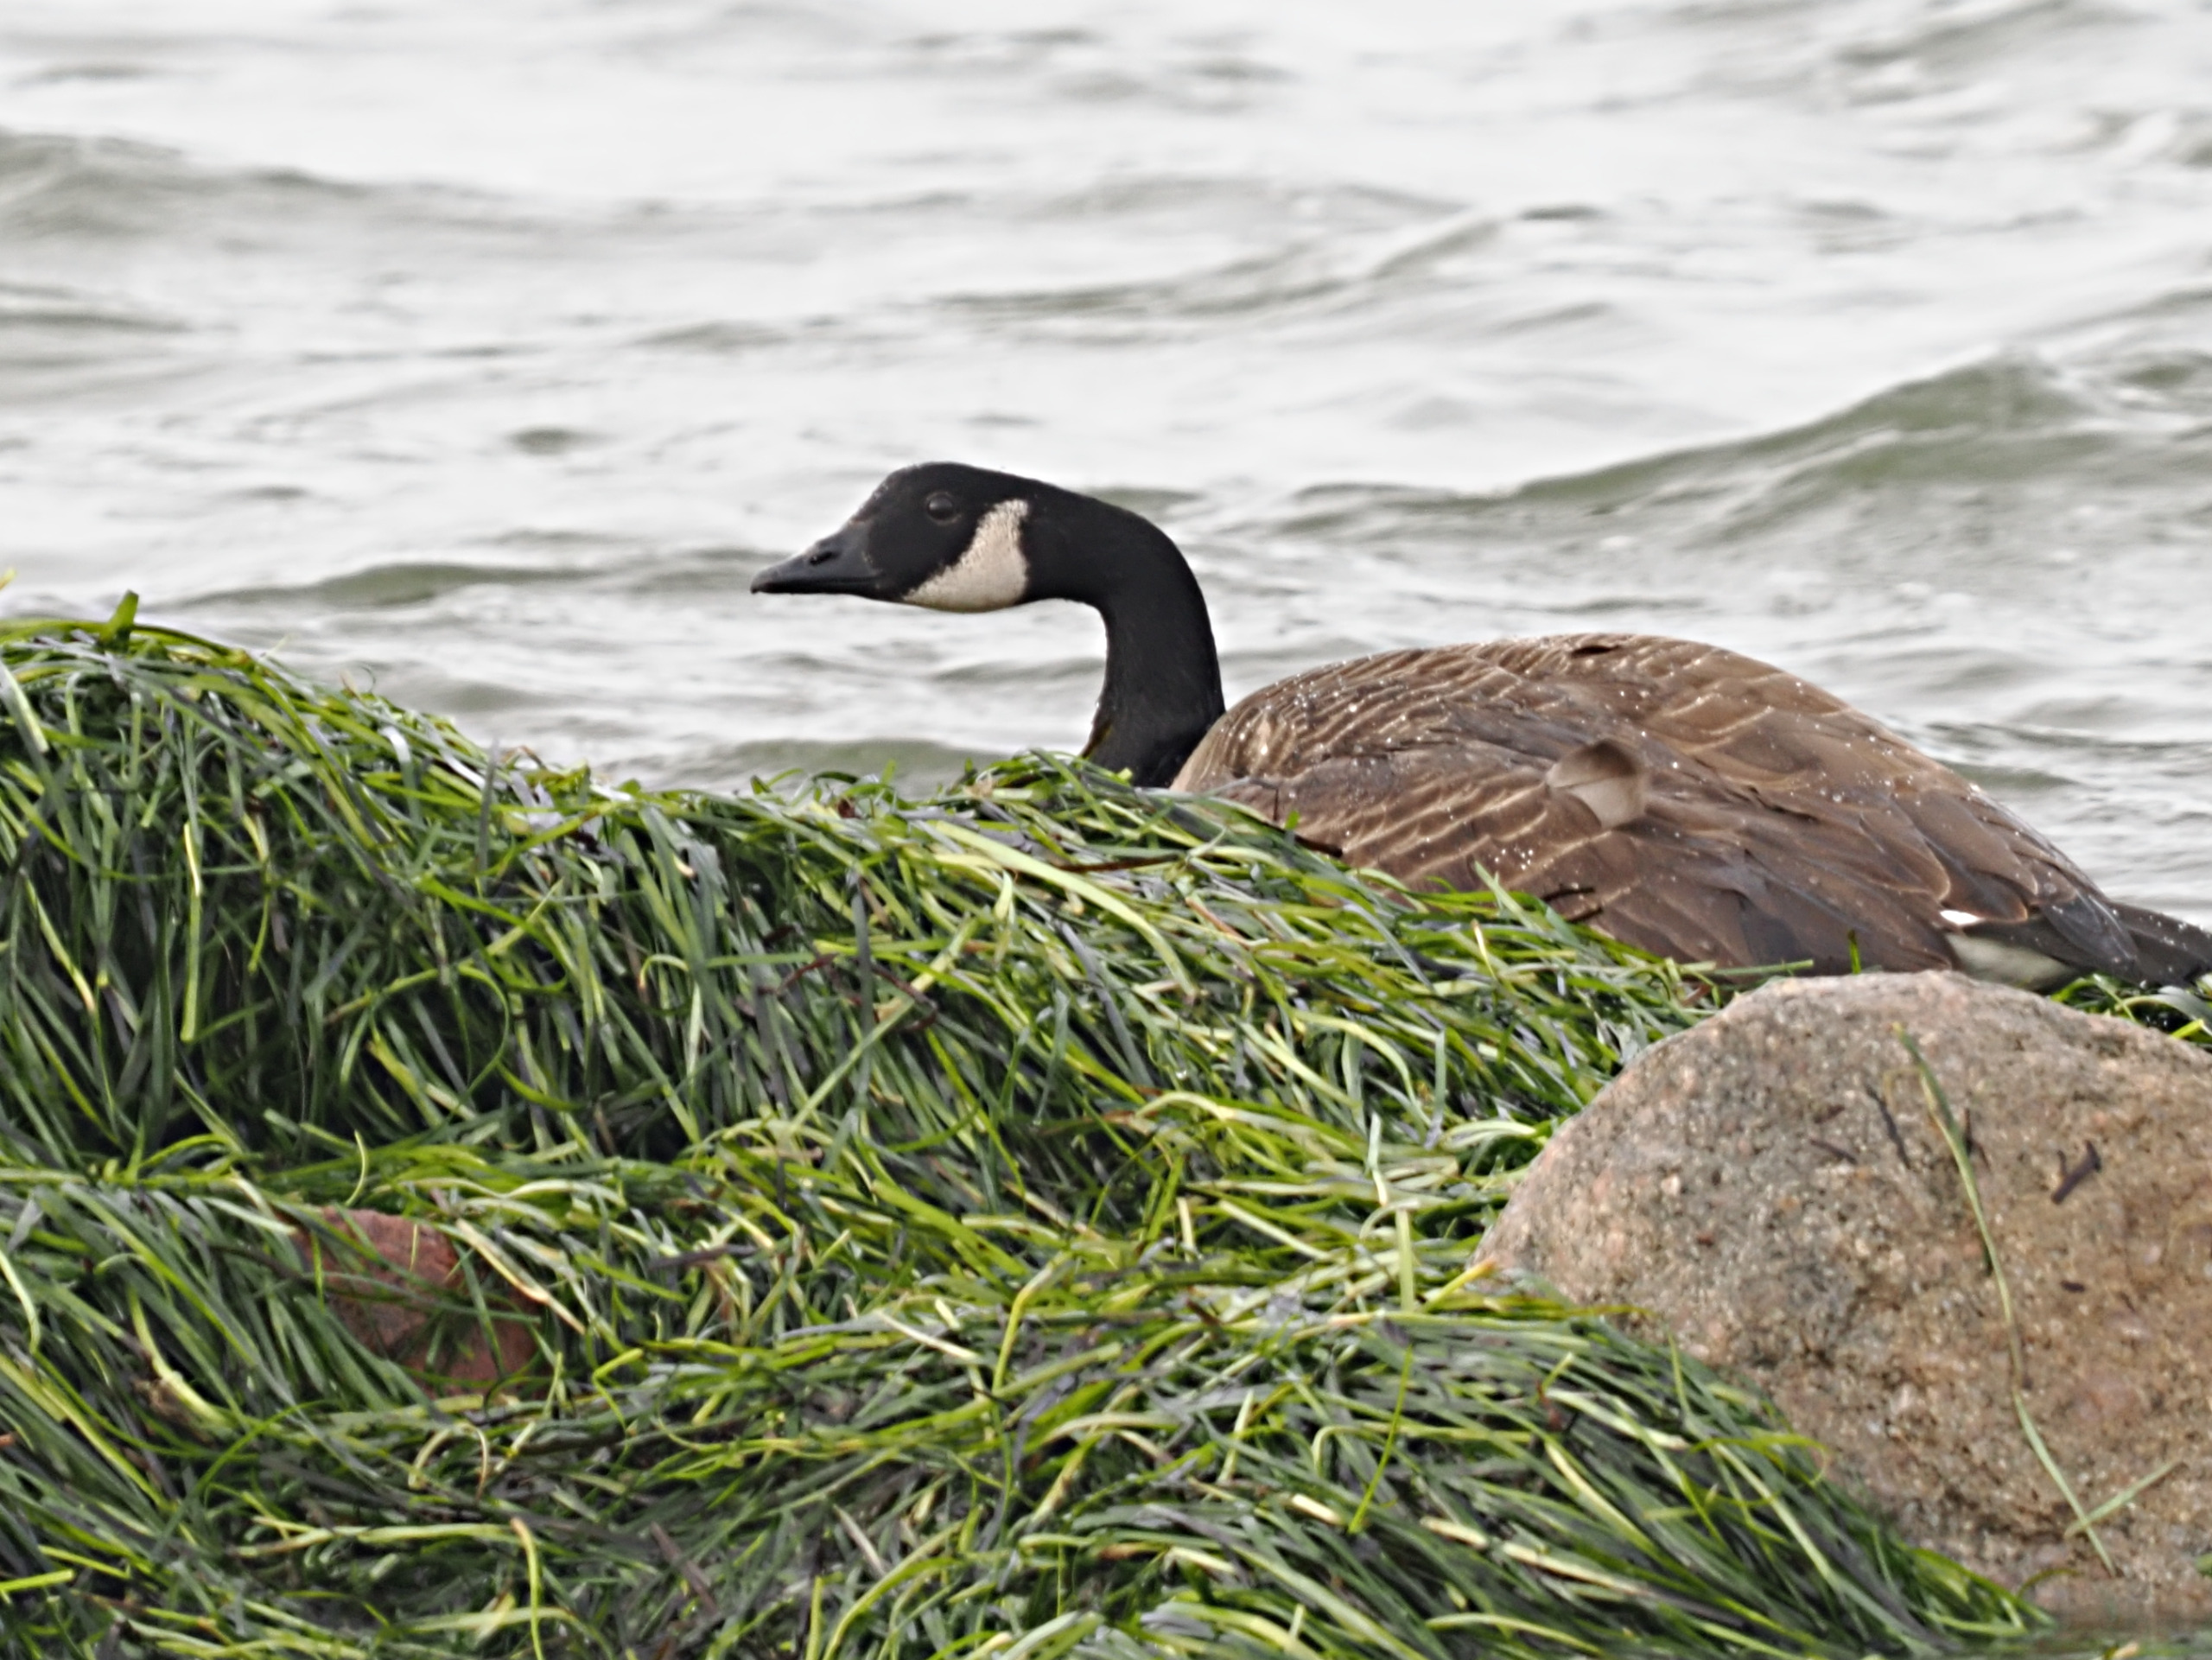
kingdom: Animalia
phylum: Chordata
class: Aves
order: Anseriformes
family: Anatidae
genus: Branta
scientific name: Branta canadensis
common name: Canadagås
